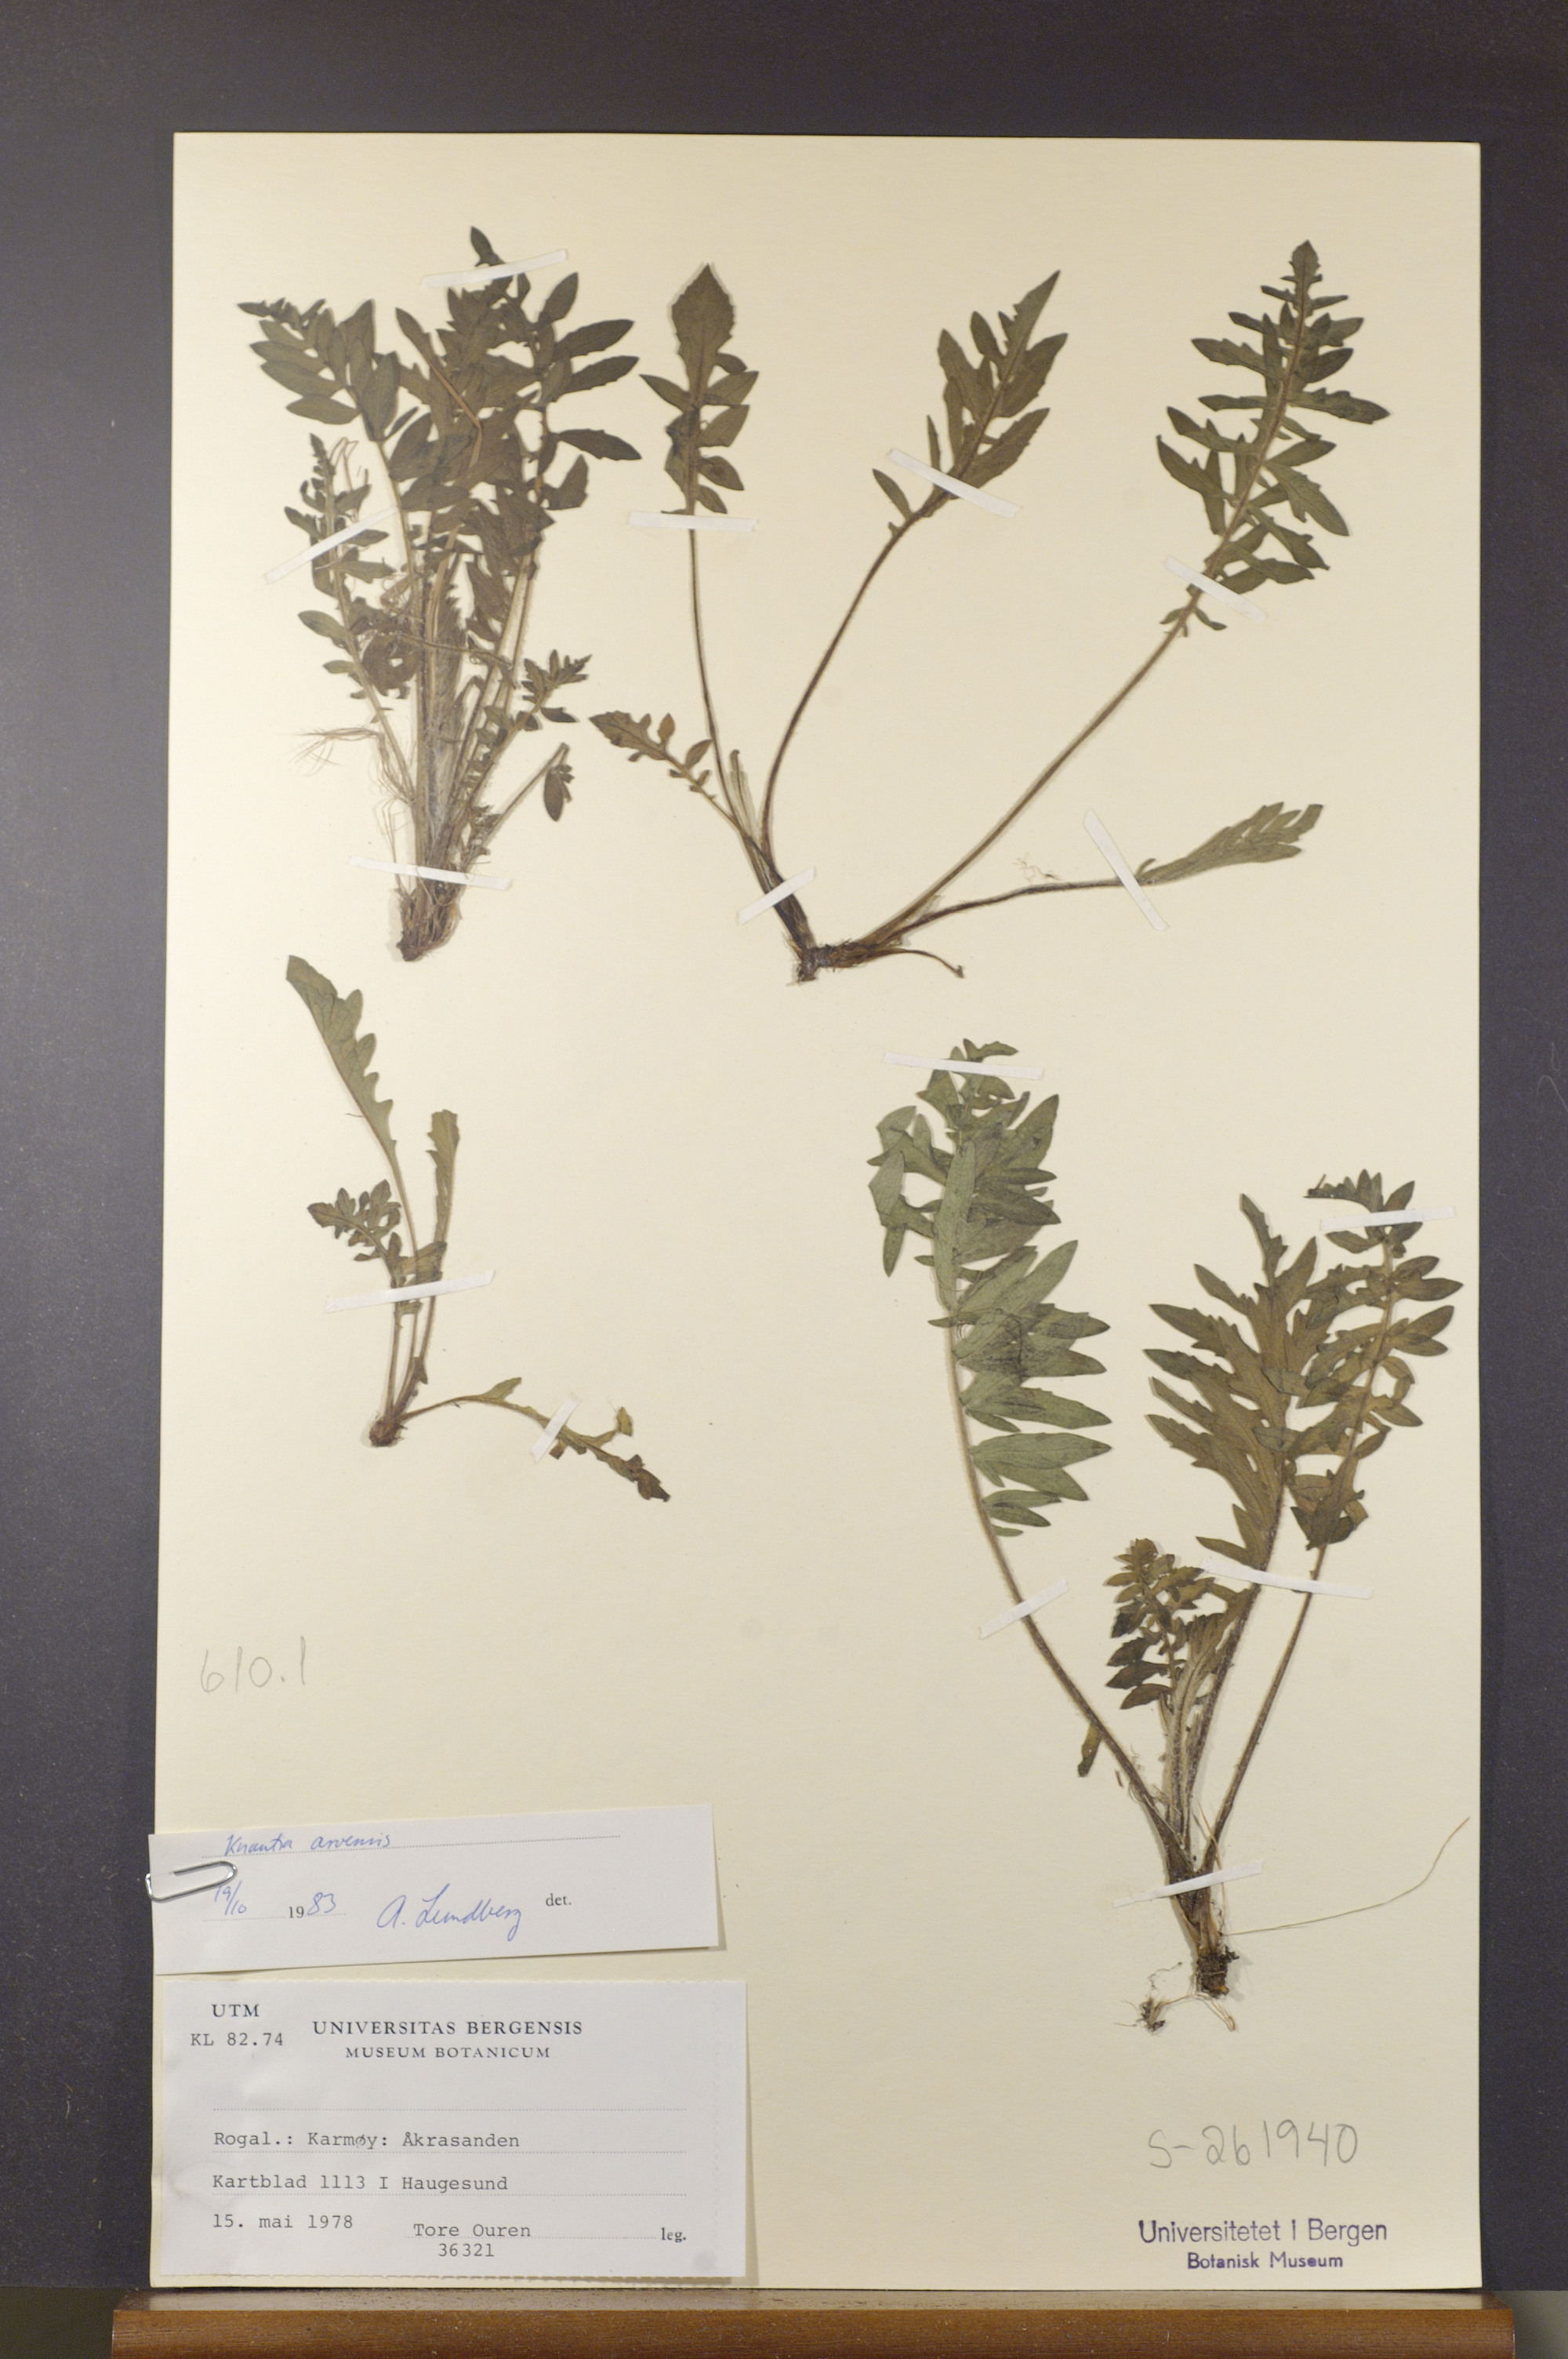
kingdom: Plantae
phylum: Tracheophyta
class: Magnoliopsida
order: Dipsacales
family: Caprifoliaceae
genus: Knautia
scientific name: Knautia arvensis
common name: Field scabiosa
